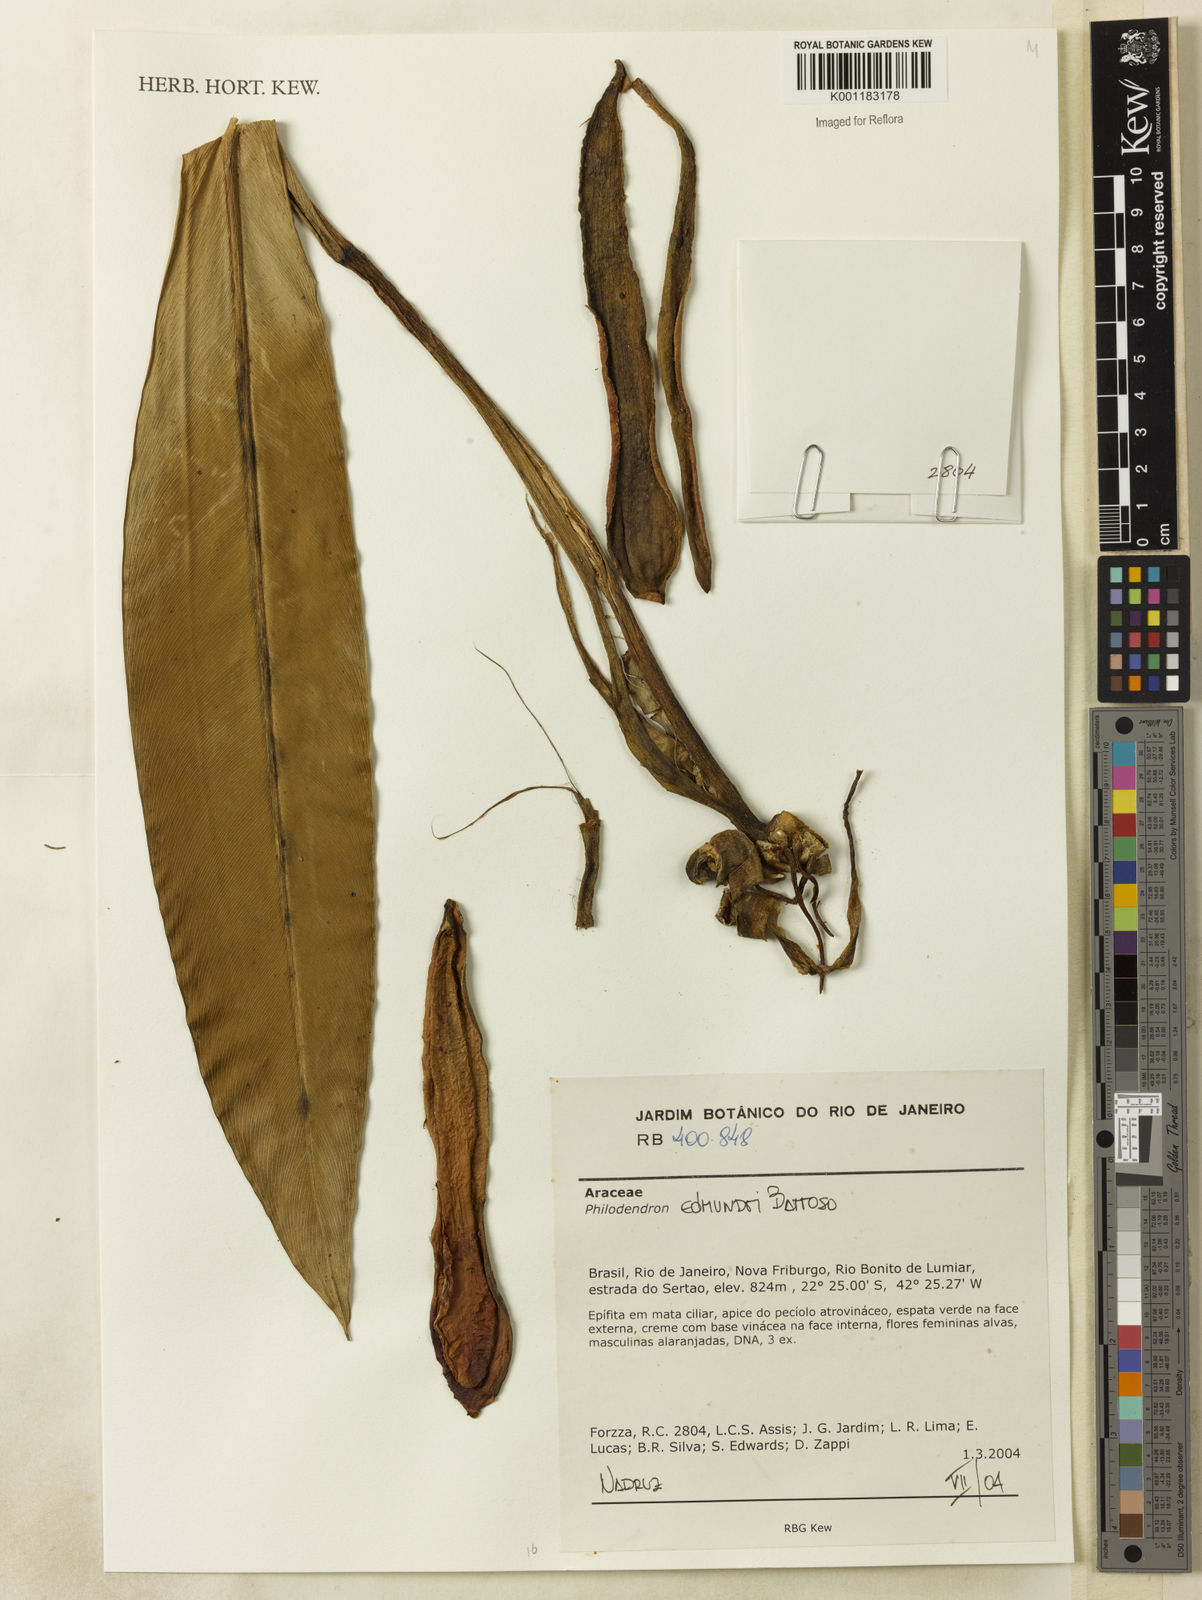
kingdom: Plantae
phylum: Tracheophyta
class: Liliopsida
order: Alismatales
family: Araceae
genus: Philodendron
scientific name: Philodendron edmundoi
